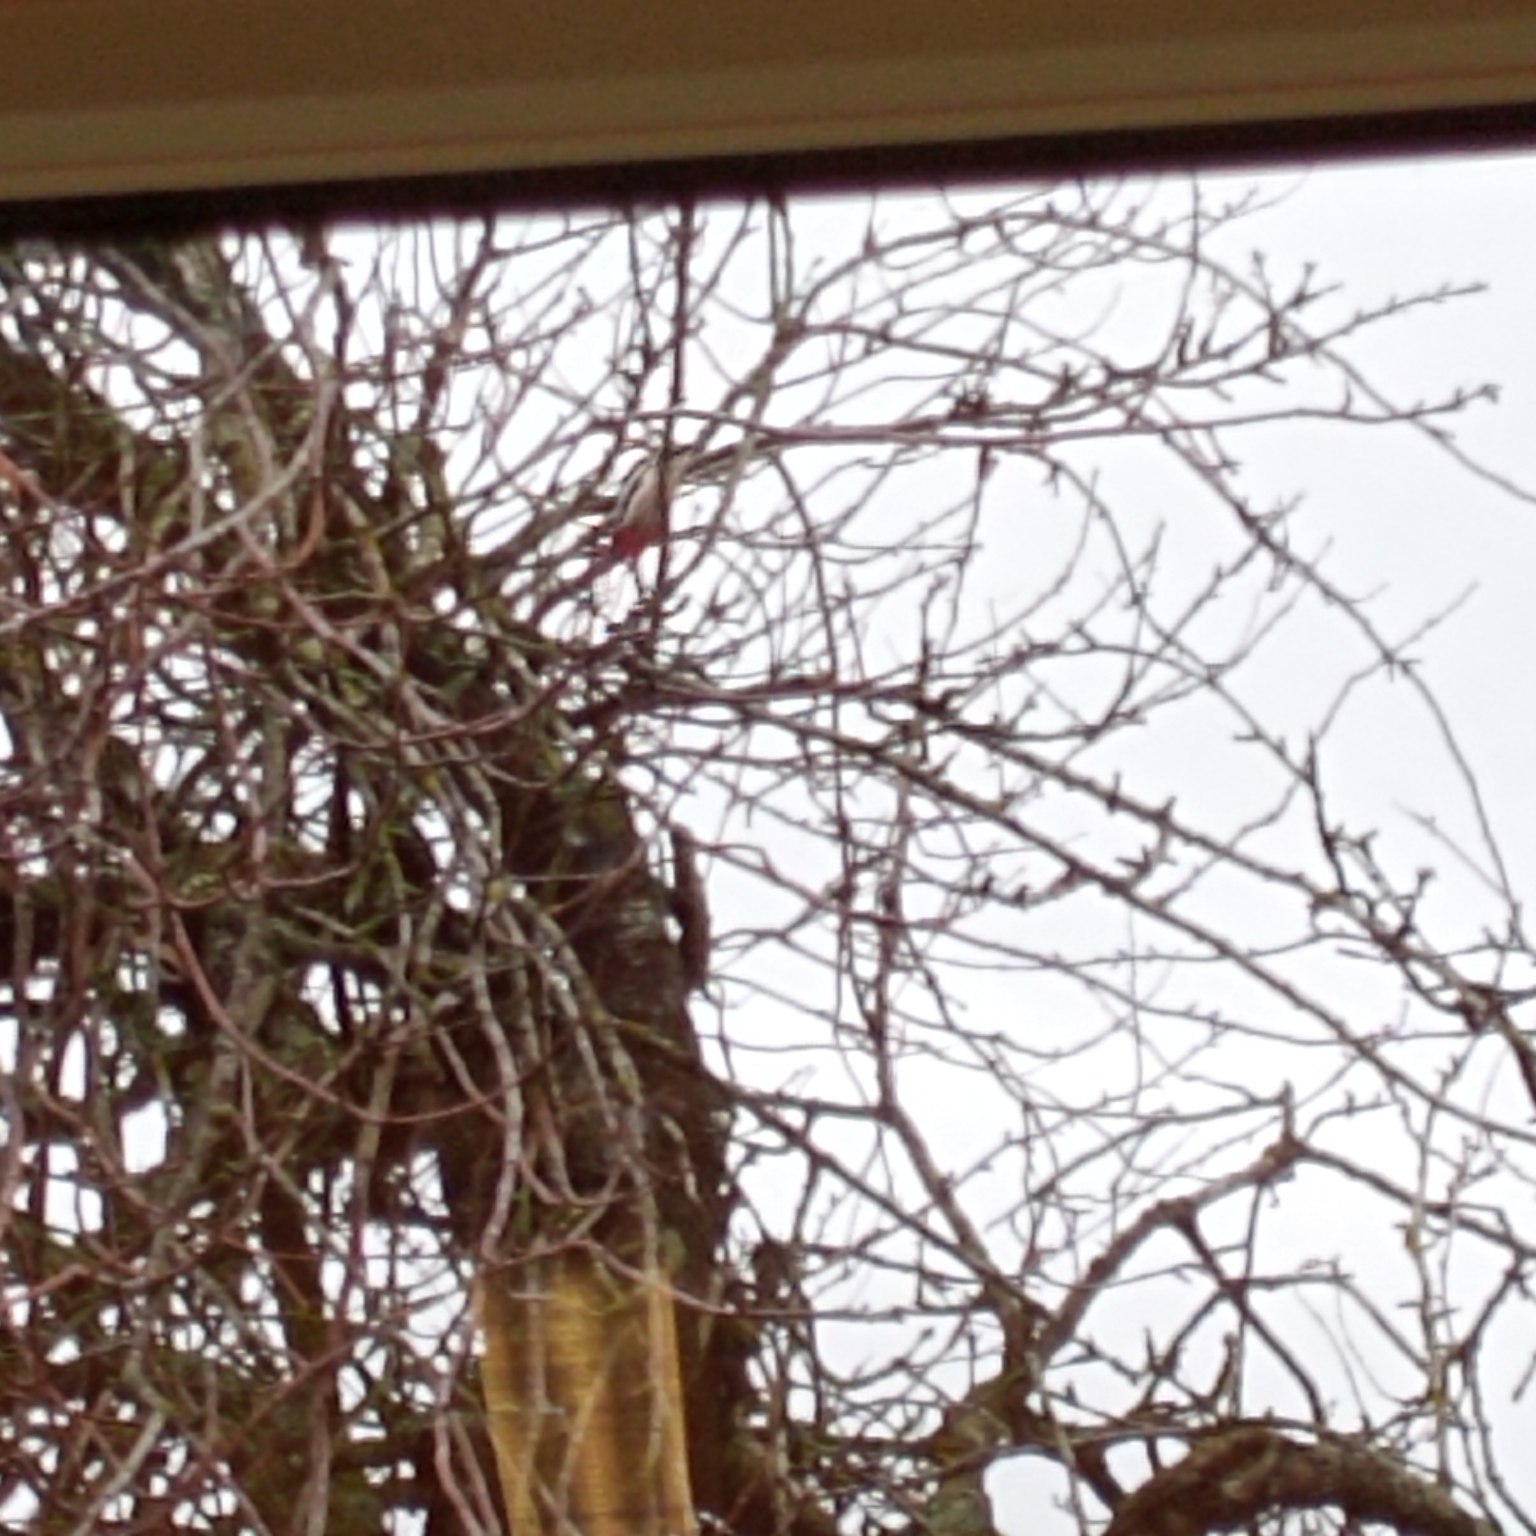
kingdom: Animalia
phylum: Chordata
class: Aves
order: Piciformes
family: Picidae
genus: Dendrocopos
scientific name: Dendrocopos major
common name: Stor flagspætte
